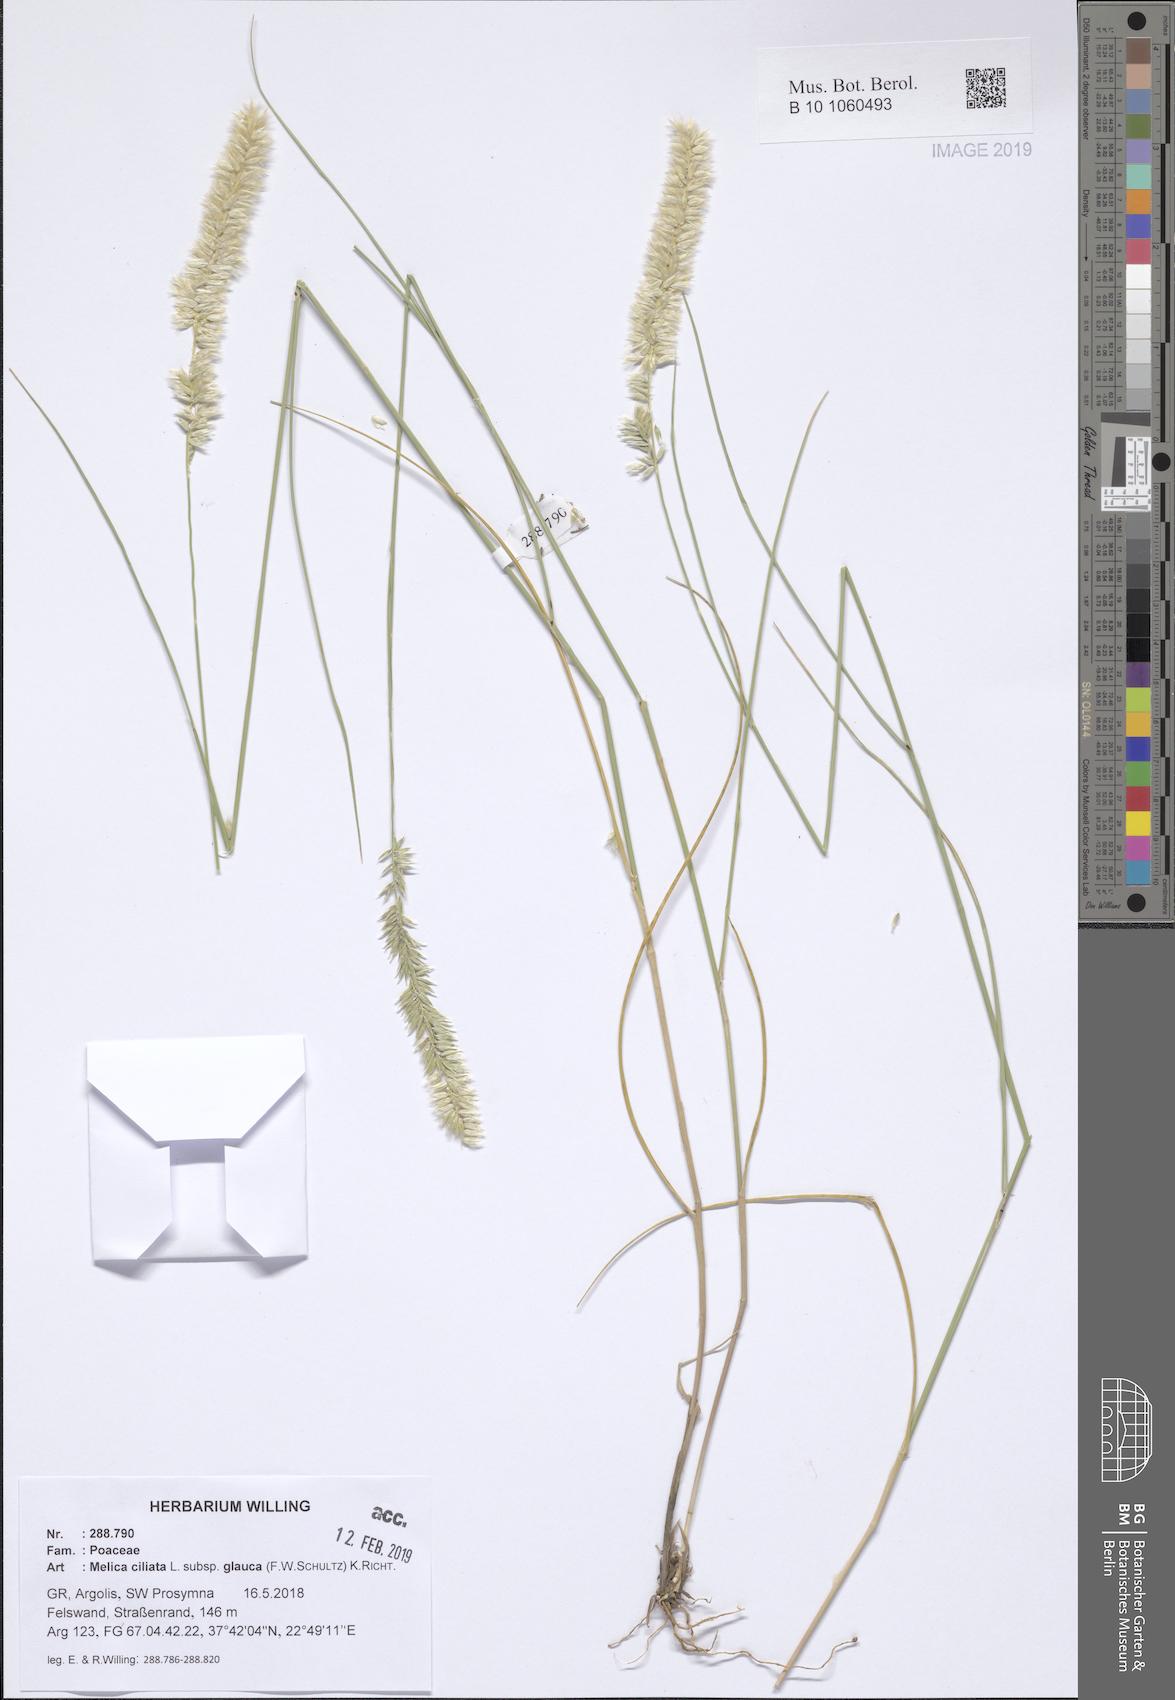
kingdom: Plantae
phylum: Tracheophyta
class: Liliopsida
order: Poales
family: Poaceae
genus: Melica
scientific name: Melica ciliata
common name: Hairy melicgrass
